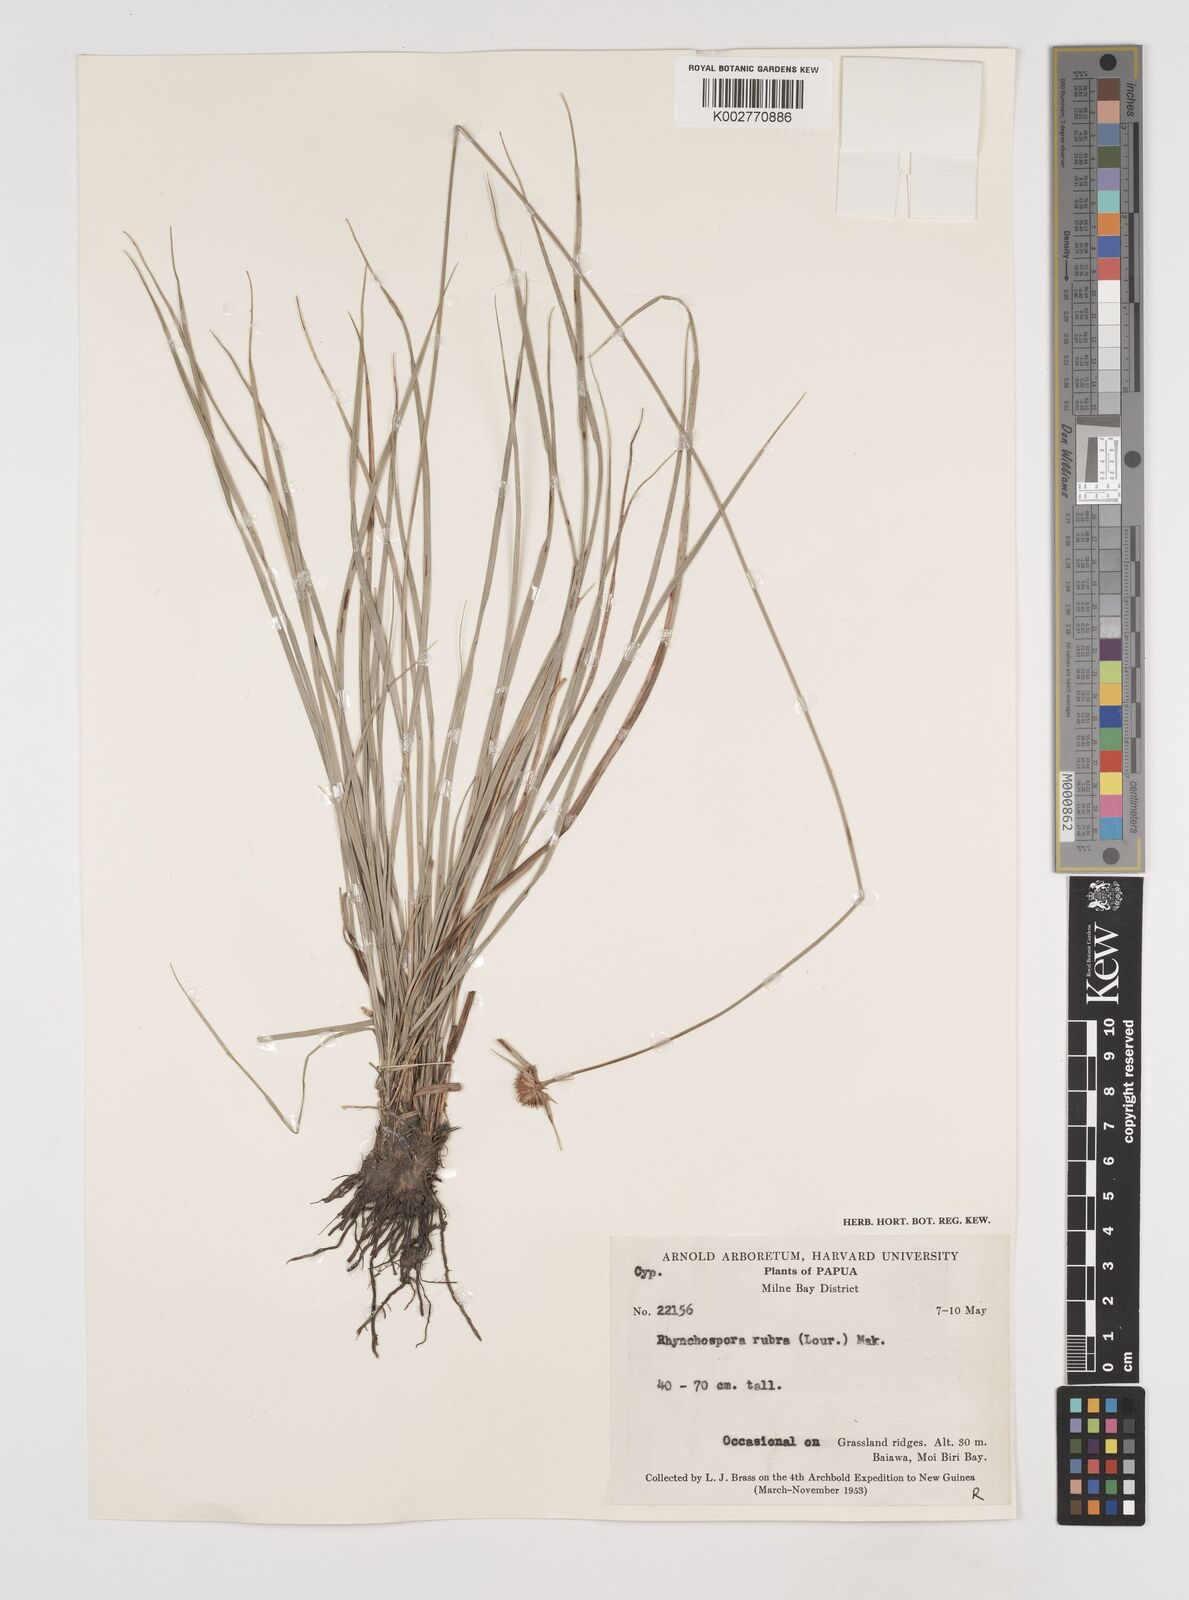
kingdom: Plantae
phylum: Tracheophyta
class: Liliopsida
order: Poales
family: Cyperaceae
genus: Rhynchospora
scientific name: Rhynchospora rubra
